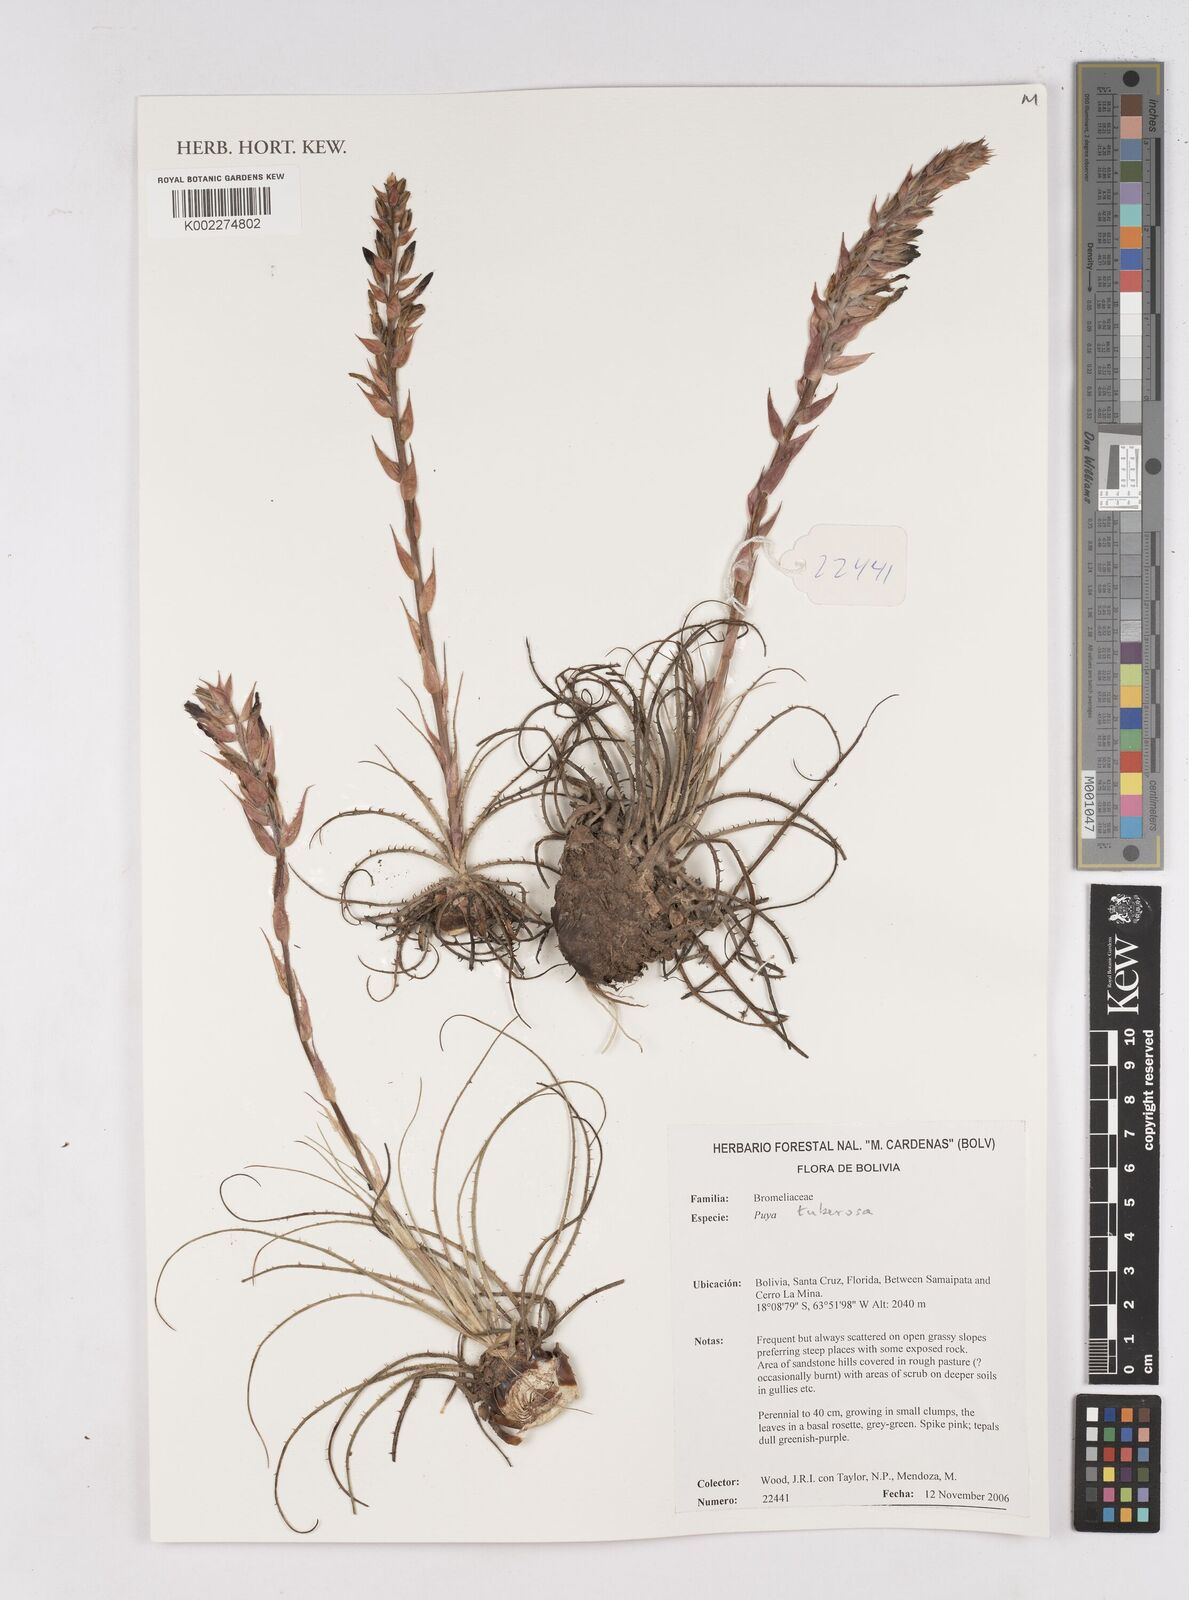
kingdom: Plantae
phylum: Tracheophyta
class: Liliopsida
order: Poales
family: Bromeliaceae
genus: Puya
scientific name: Puya tuberosa
